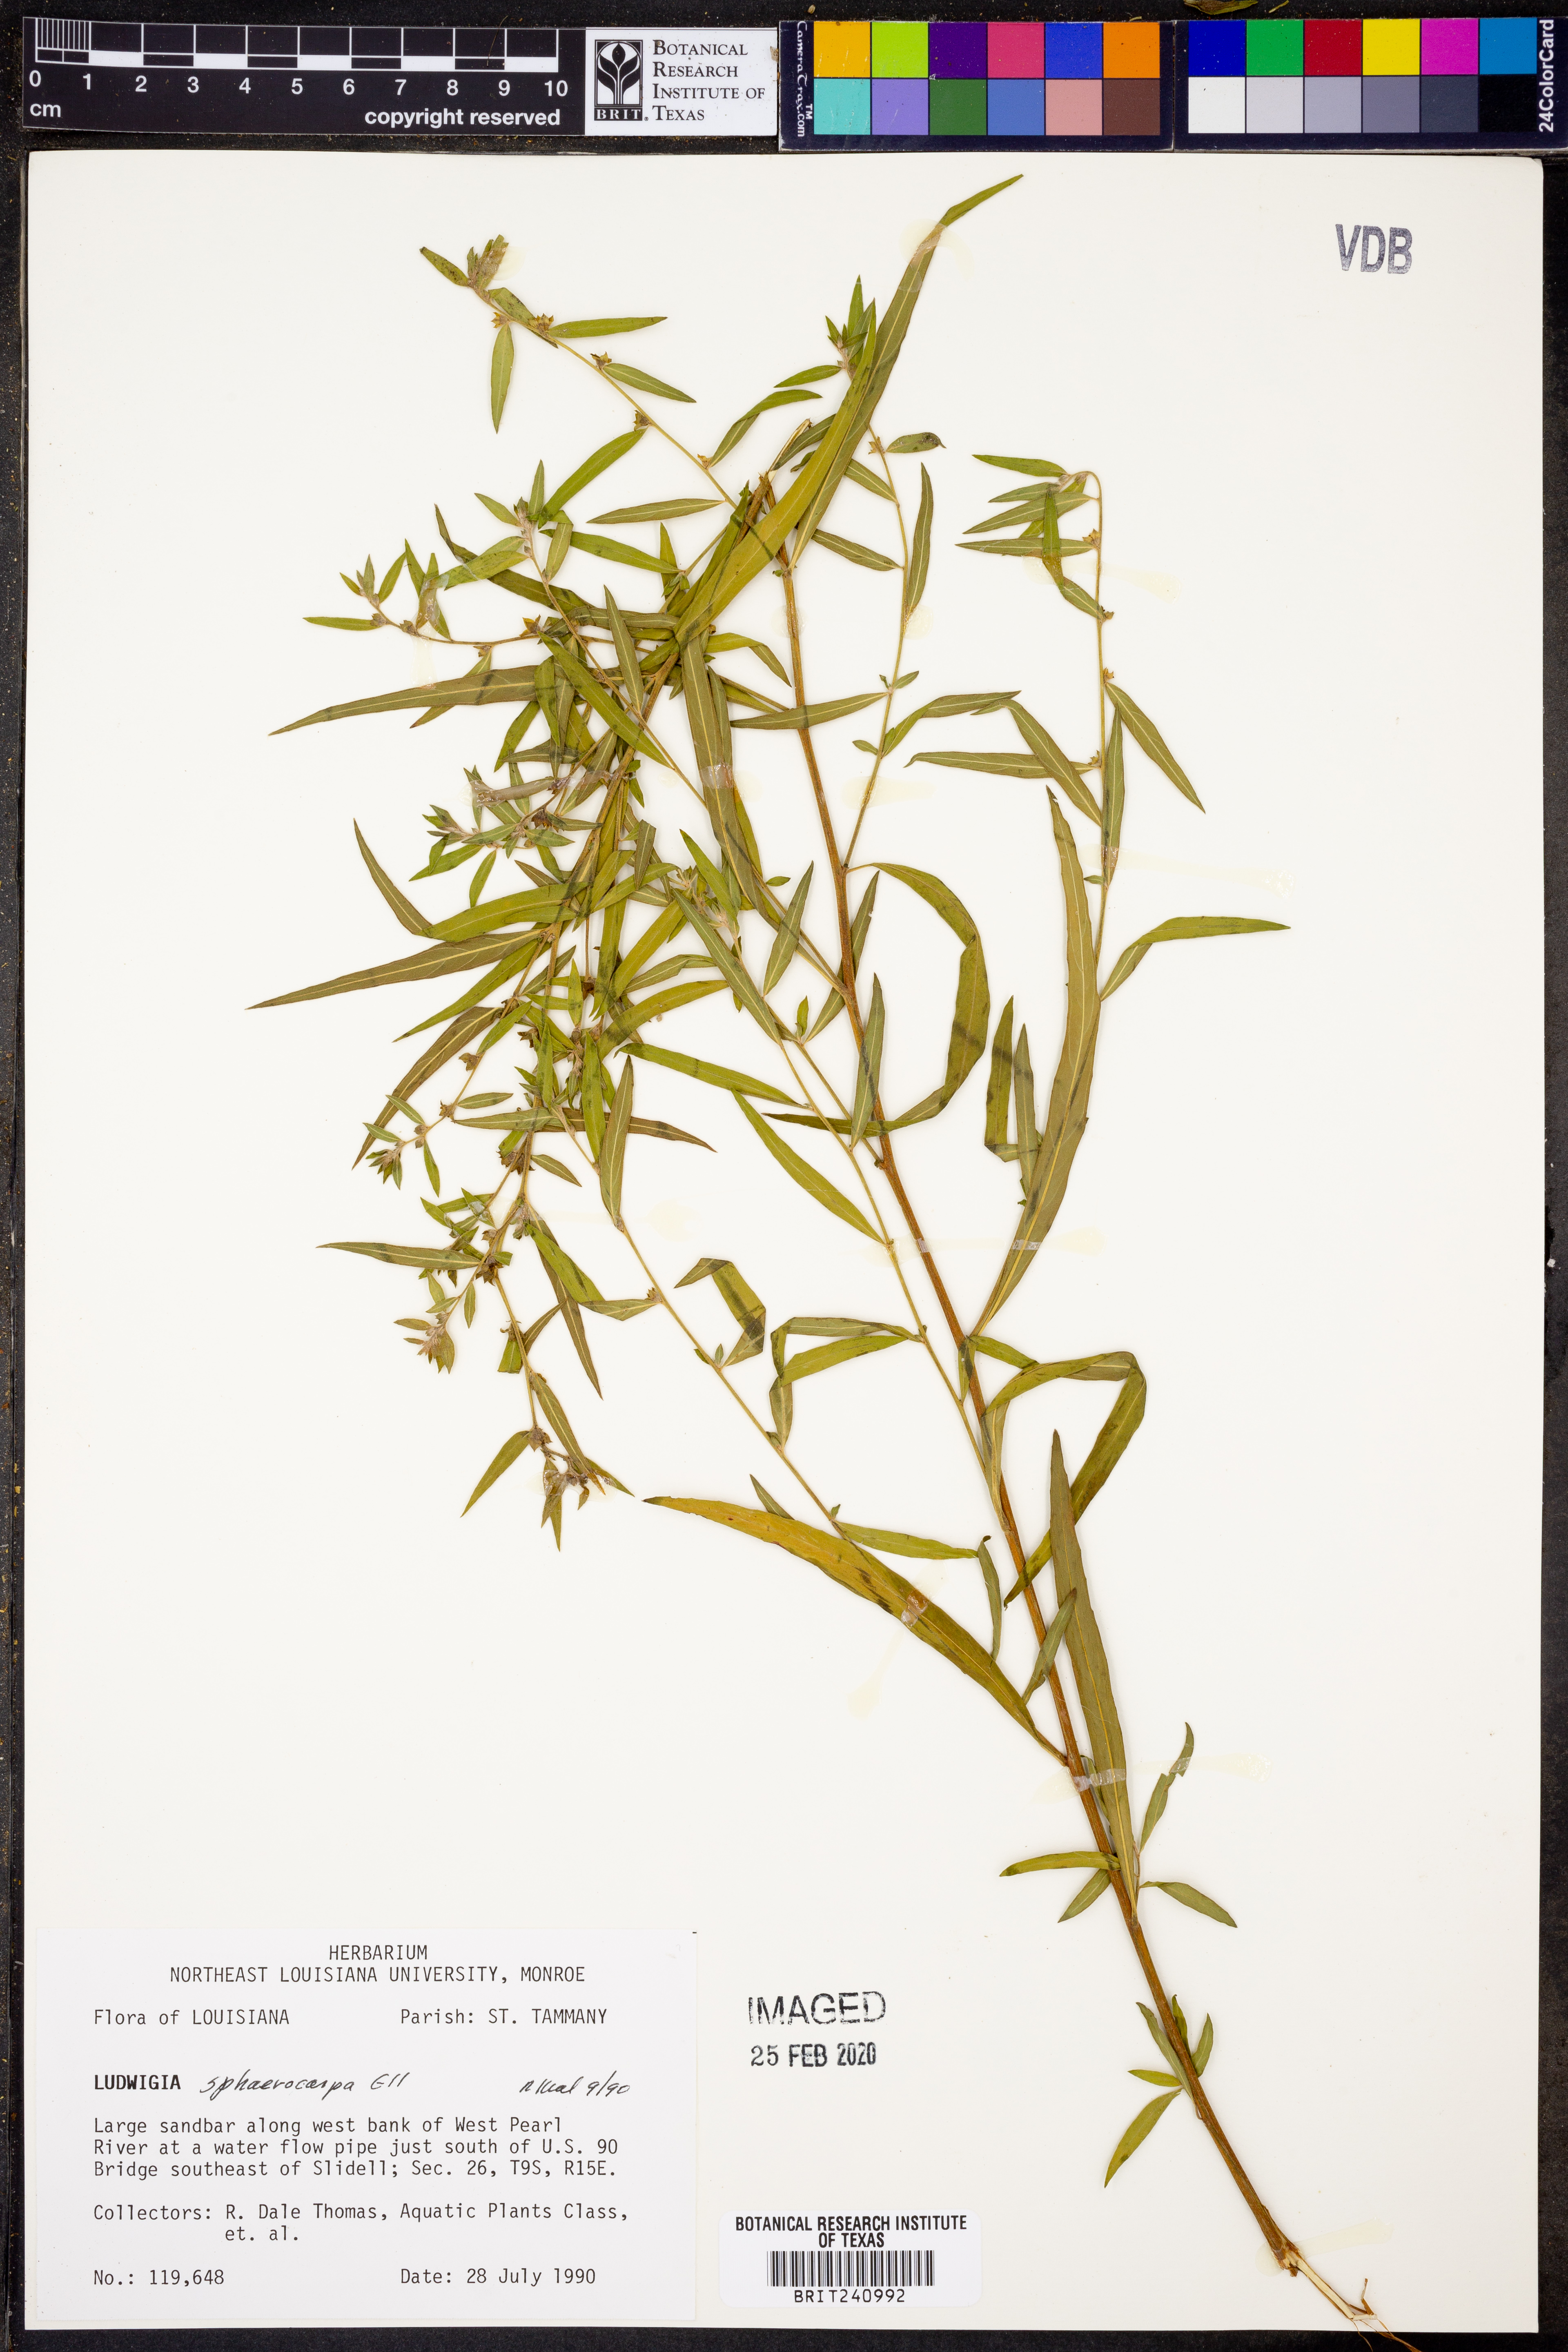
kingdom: Plantae
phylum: Tracheophyta
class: Magnoliopsida
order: Myrtales
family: Onagraceae
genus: Ludwigia
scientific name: Ludwigia sphaerocarpa
